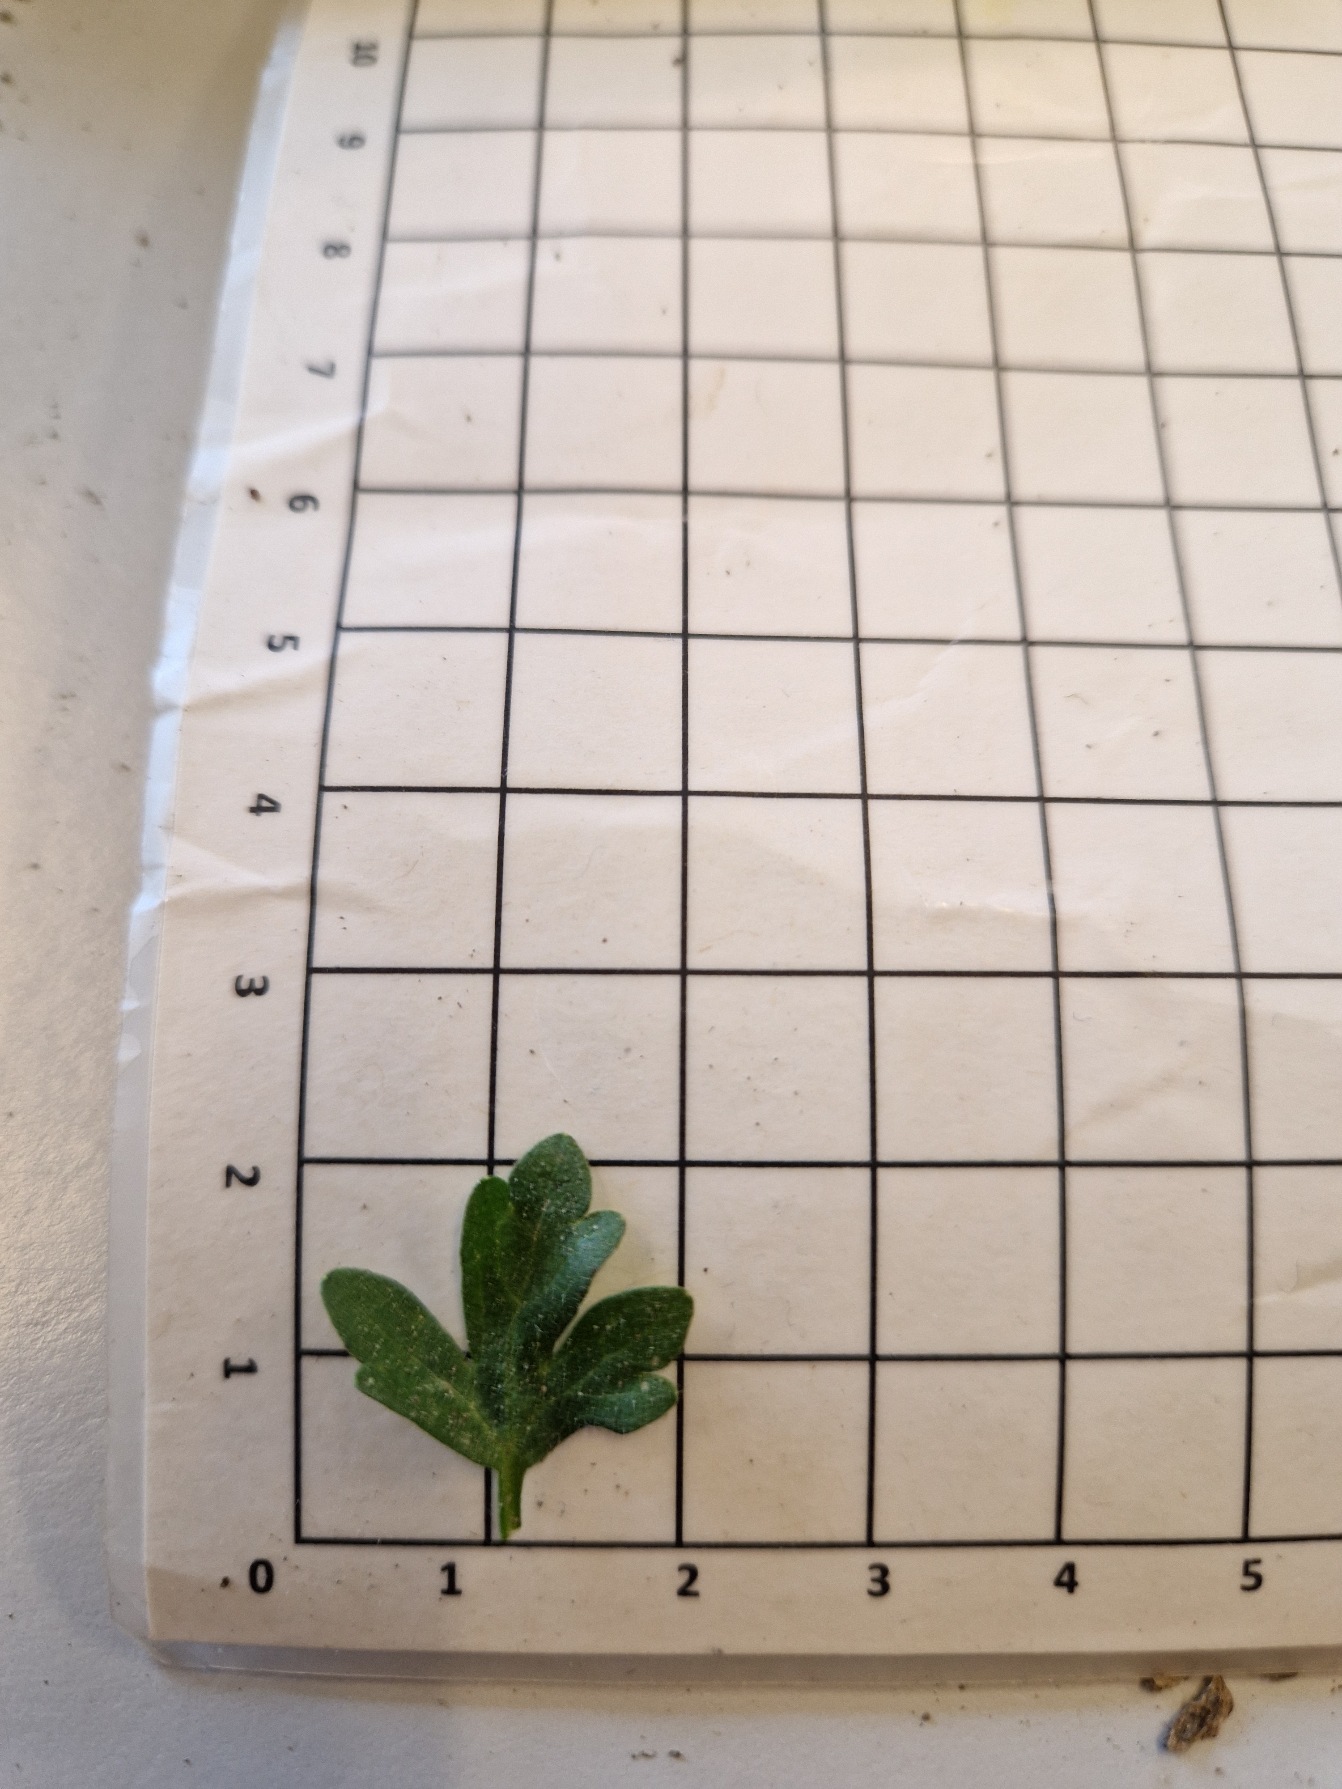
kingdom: Plantae
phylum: Tracheophyta
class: Magnoliopsida
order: Ranunculales
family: Ranunculaceae
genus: Ranunculus
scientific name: Ranunculus sardous
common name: Stivhåret ranunkel
